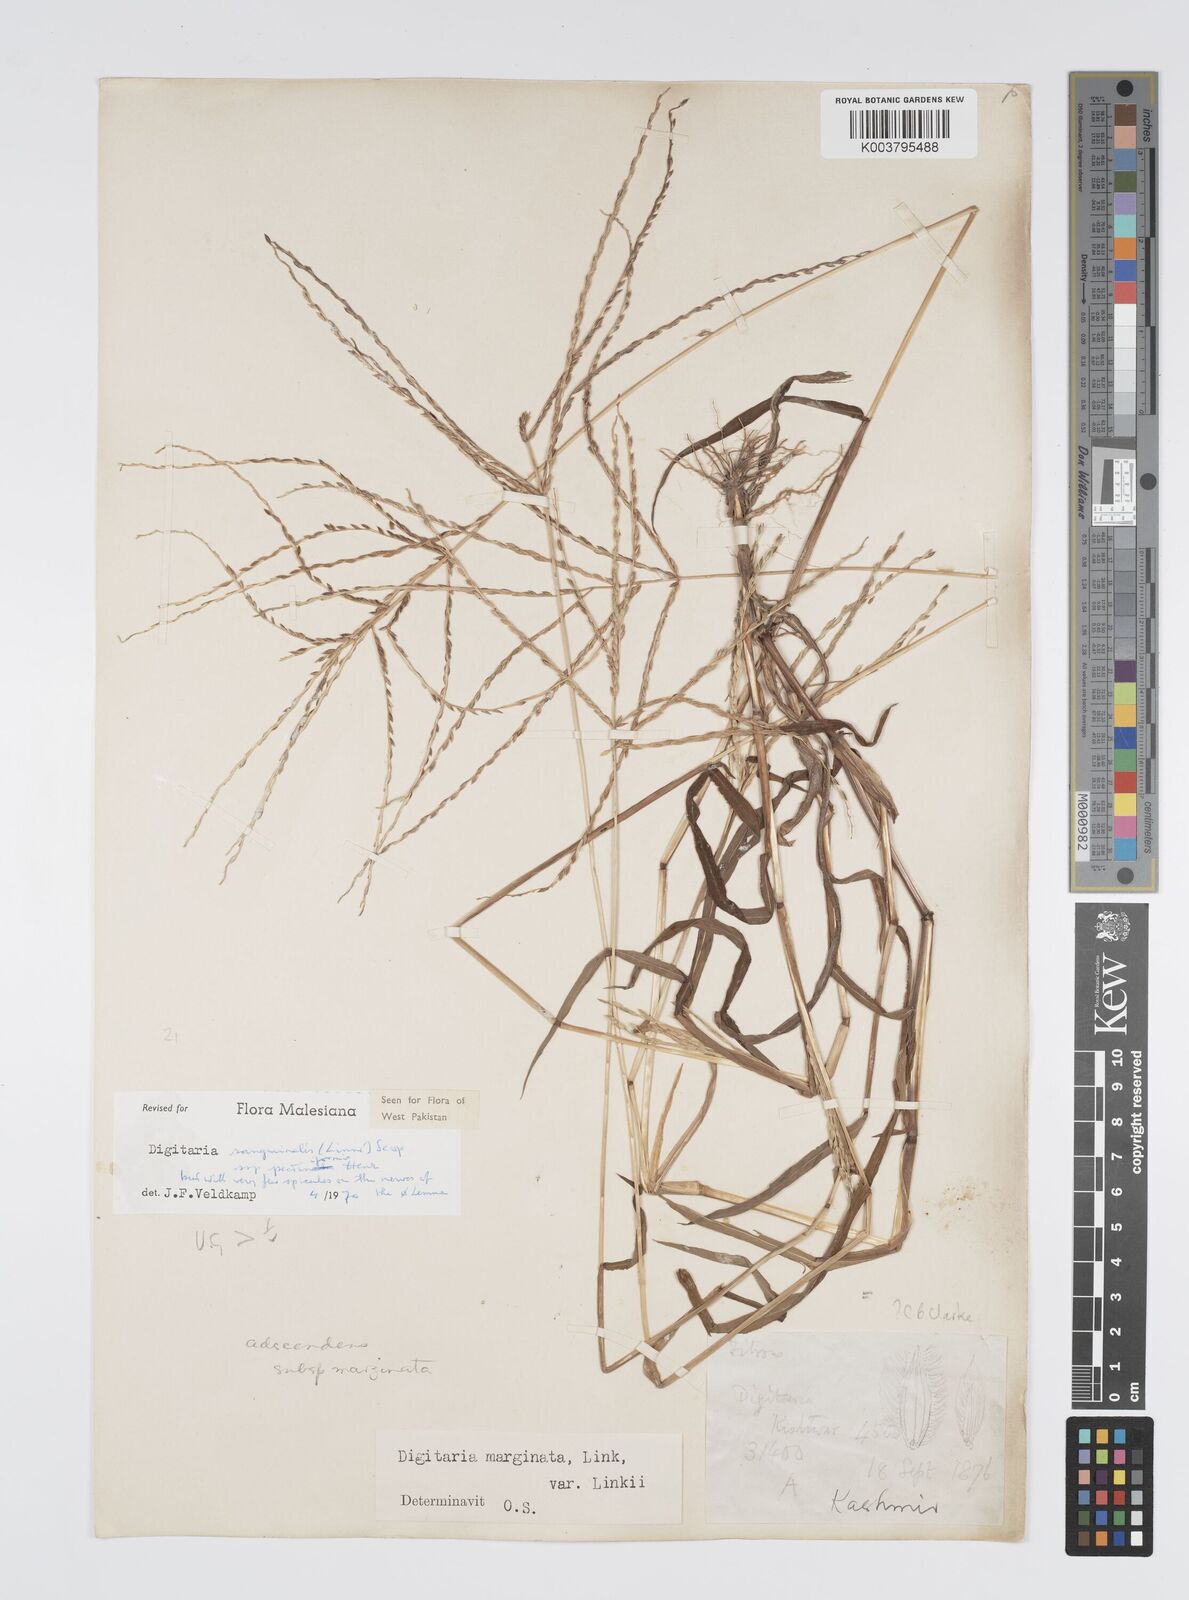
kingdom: Plantae
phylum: Tracheophyta
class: Liliopsida
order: Poales
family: Poaceae
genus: Digitaria
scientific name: Digitaria sanguinalis
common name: Hairy crabgrass
